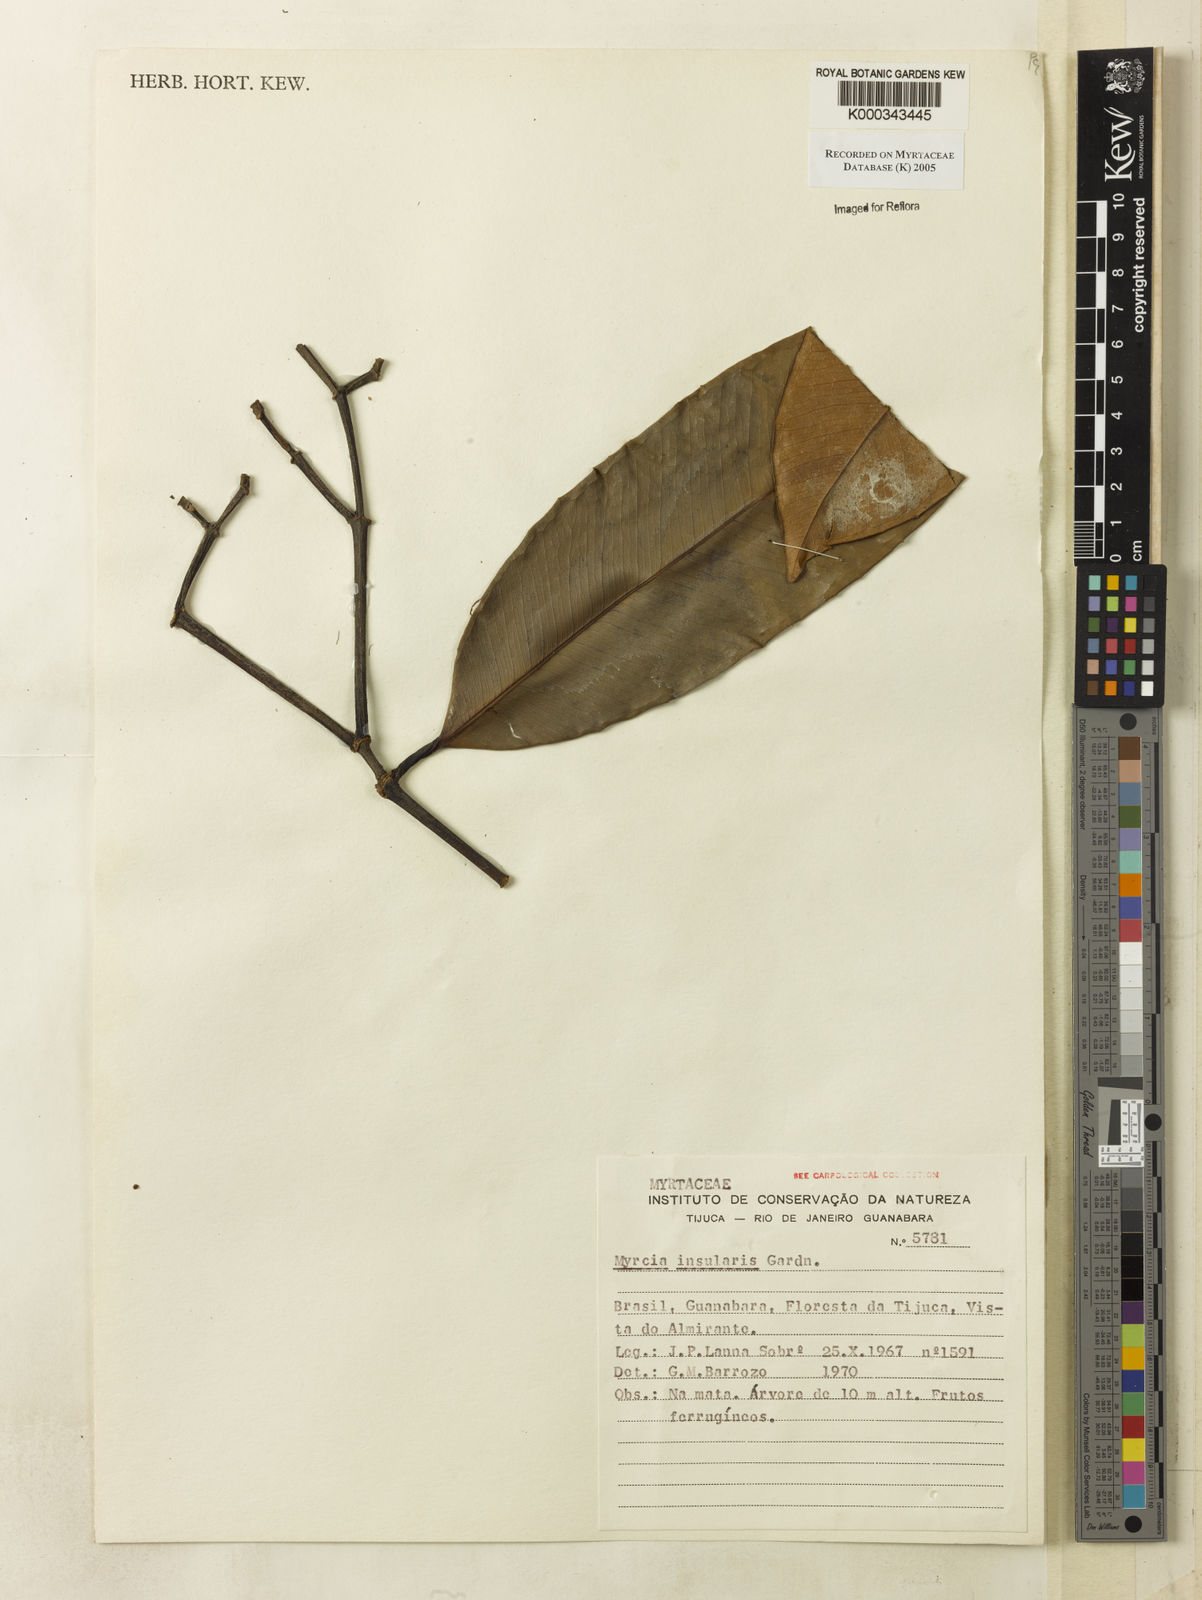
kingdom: Plantae
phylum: Tracheophyta
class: Magnoliopsida
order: Myrtales
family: Myrtaceae
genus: Myrcia
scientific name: Myrcia insularis
